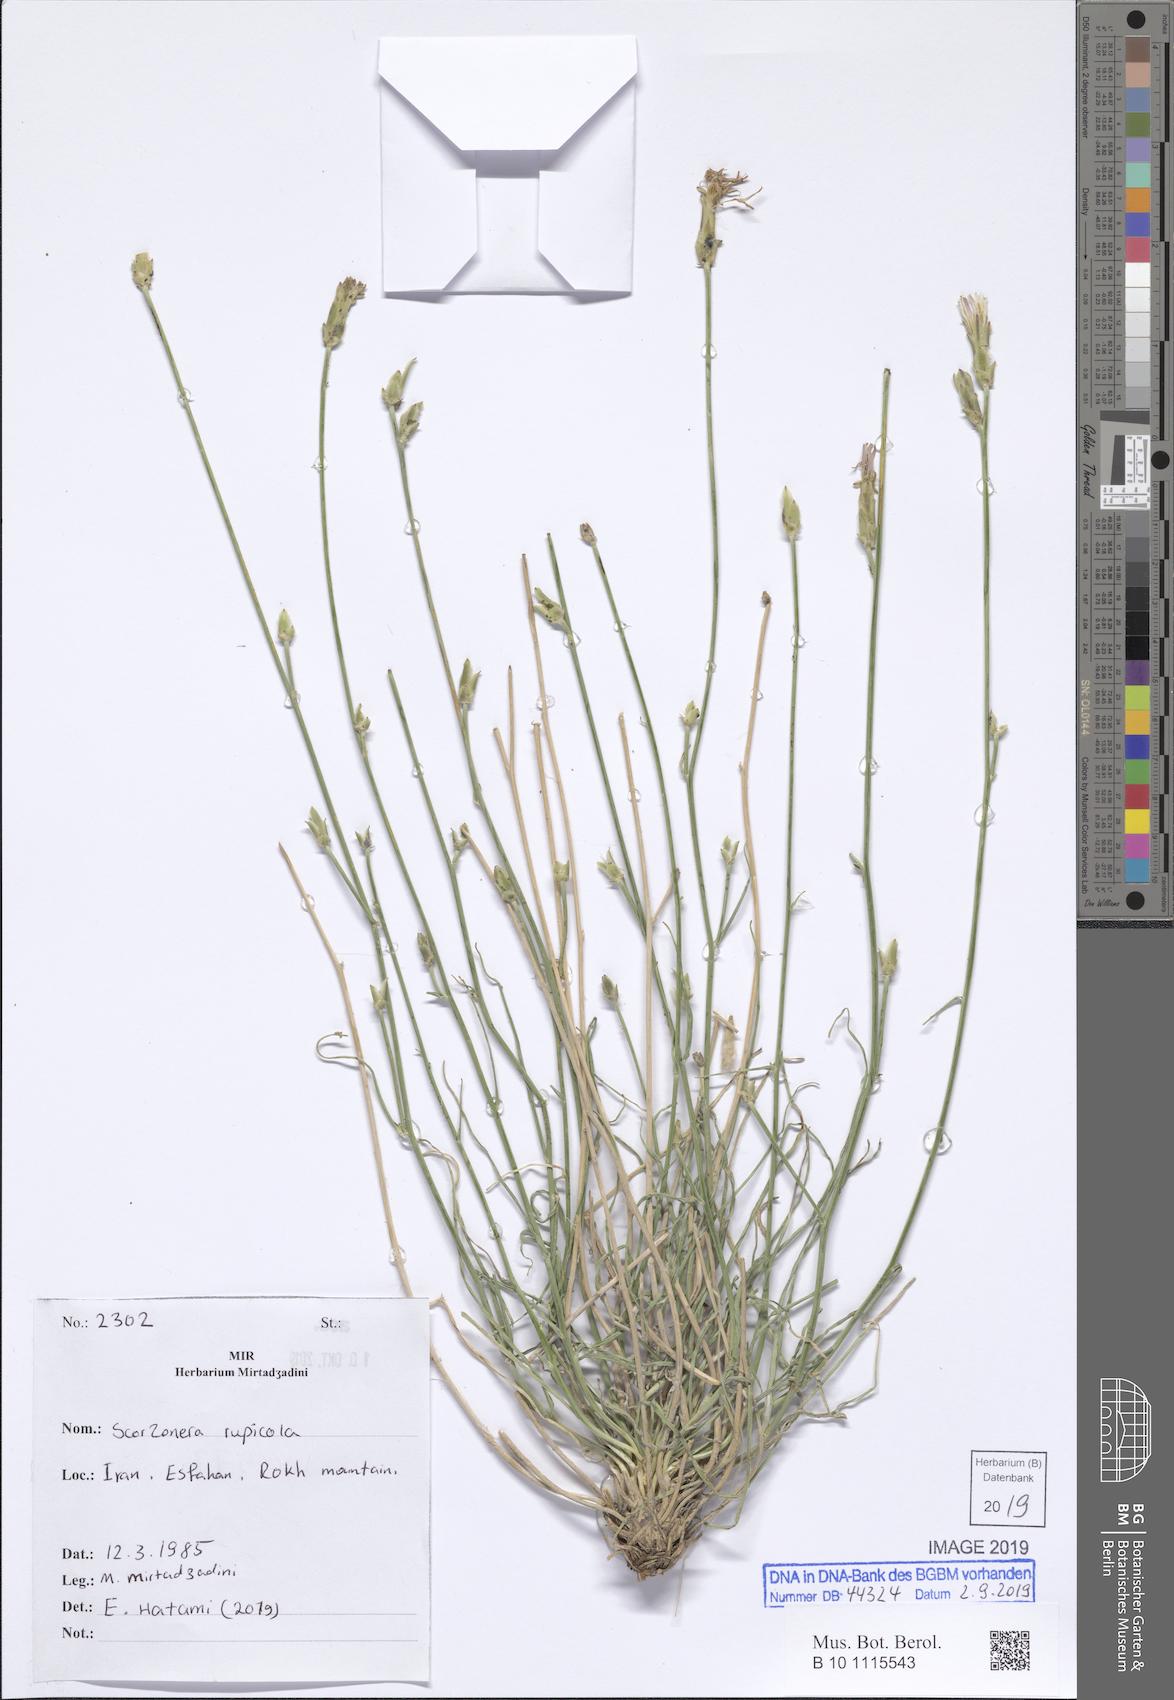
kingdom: Plantae
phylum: Tracheophyta
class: Magnoliopsida
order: Asterales
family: Asteraceae
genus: Scorzonera
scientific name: Scorzonera rupicola
